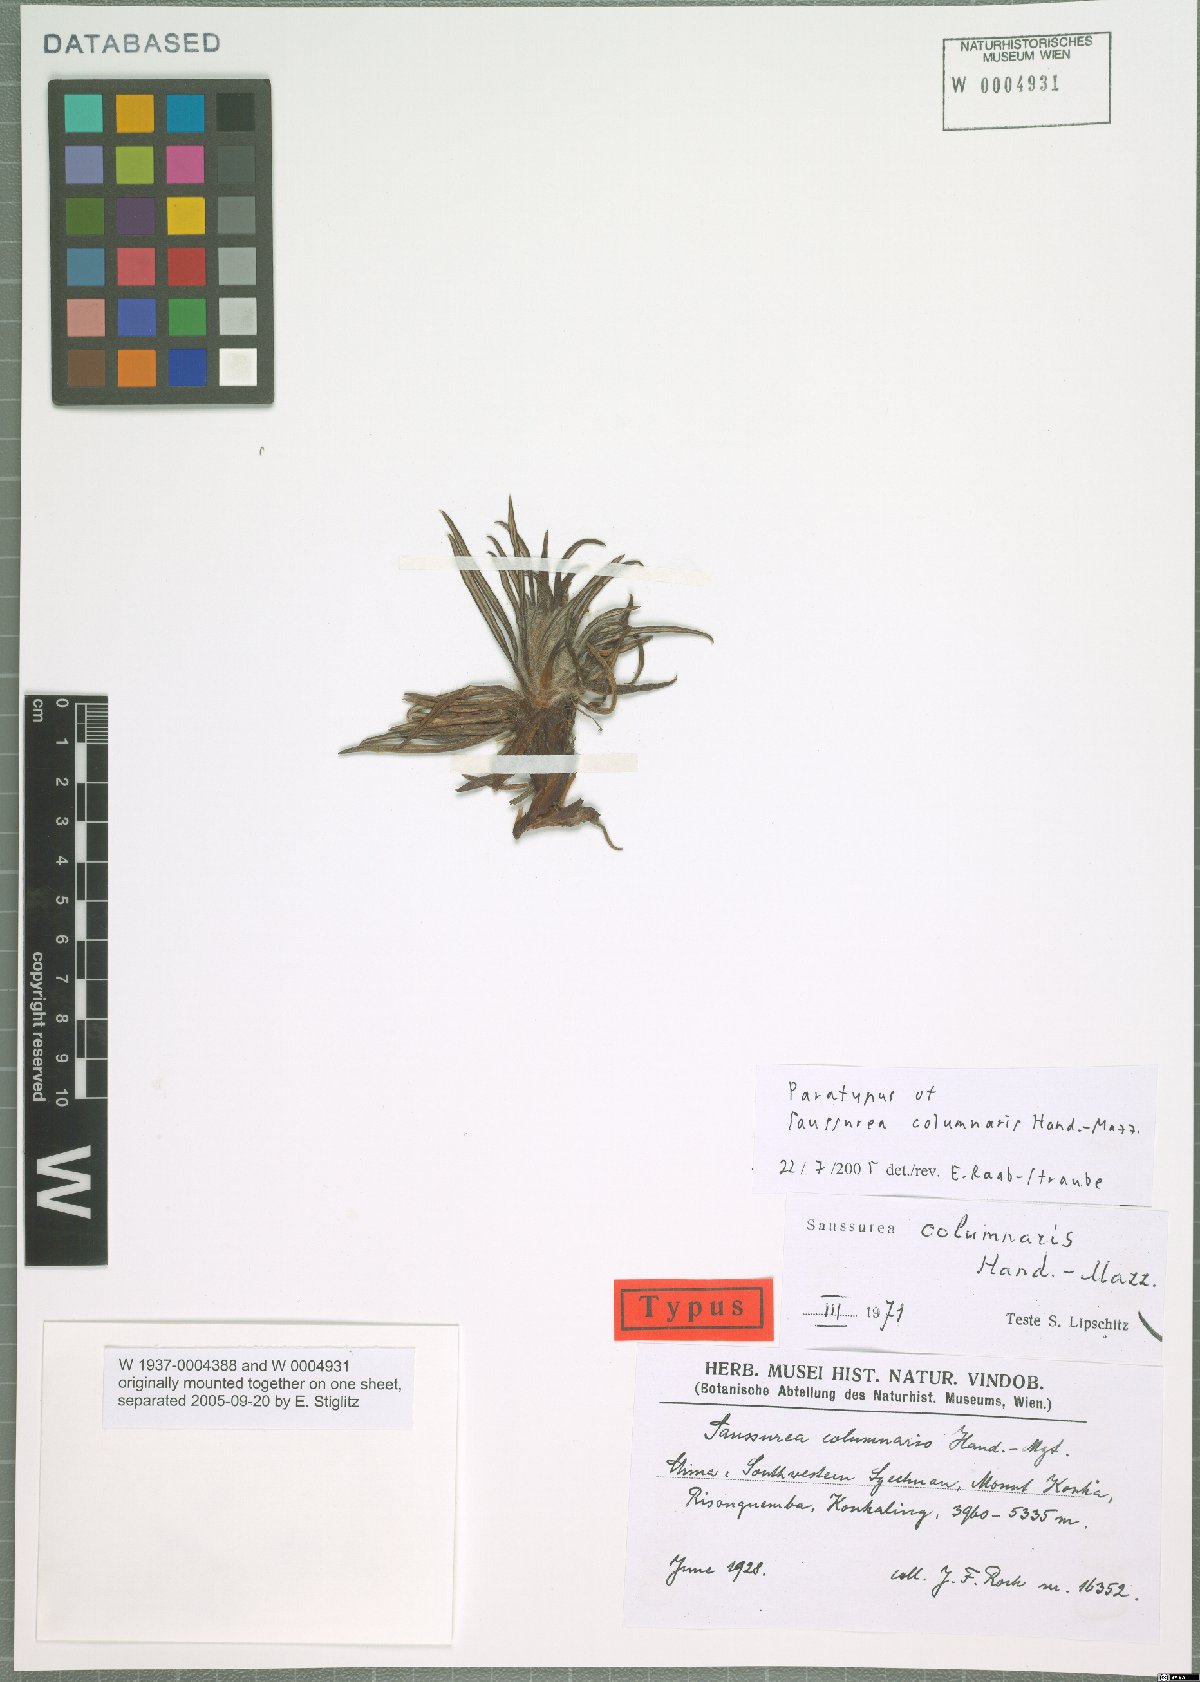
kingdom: Plantae
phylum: Tracheophyta
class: Magnoliopsida
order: Asterales
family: Asteraceae
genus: Saussurea
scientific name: Saussurea columnaris
